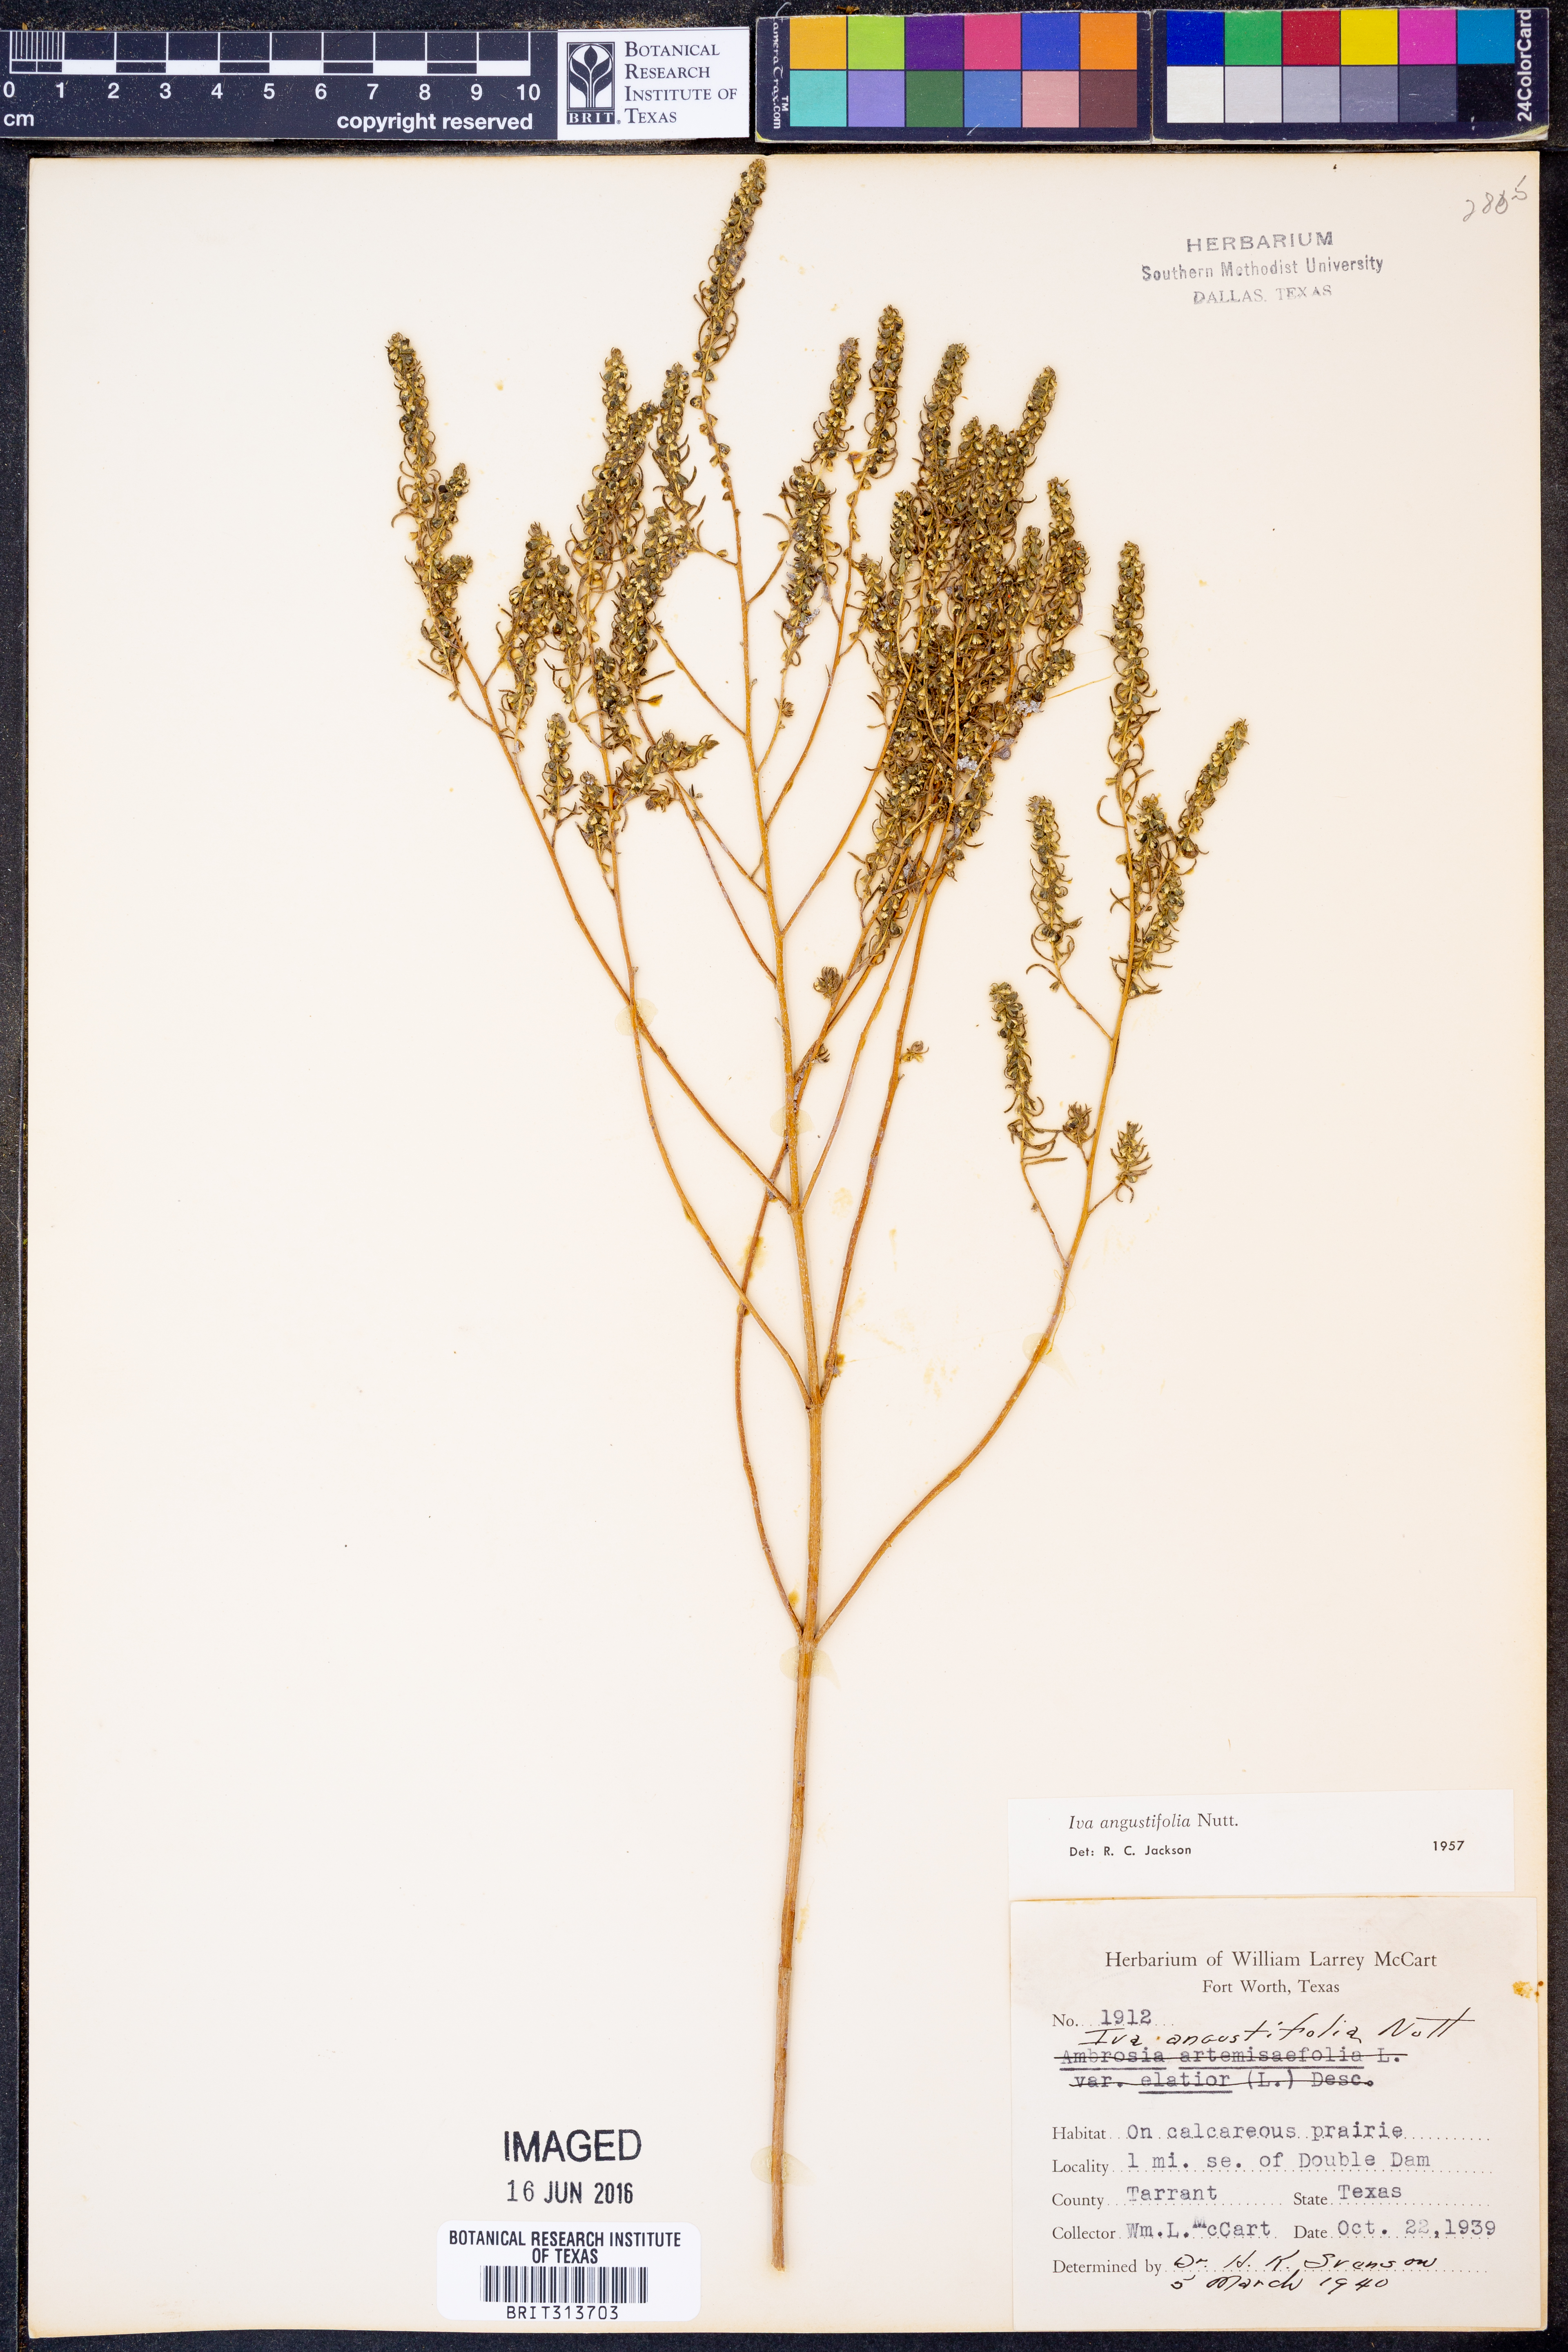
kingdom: Plantae
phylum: Tracheophyta
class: Magnoliopsida
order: Asterales
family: Asteraceae
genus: Iva
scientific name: Iva asperifolia
